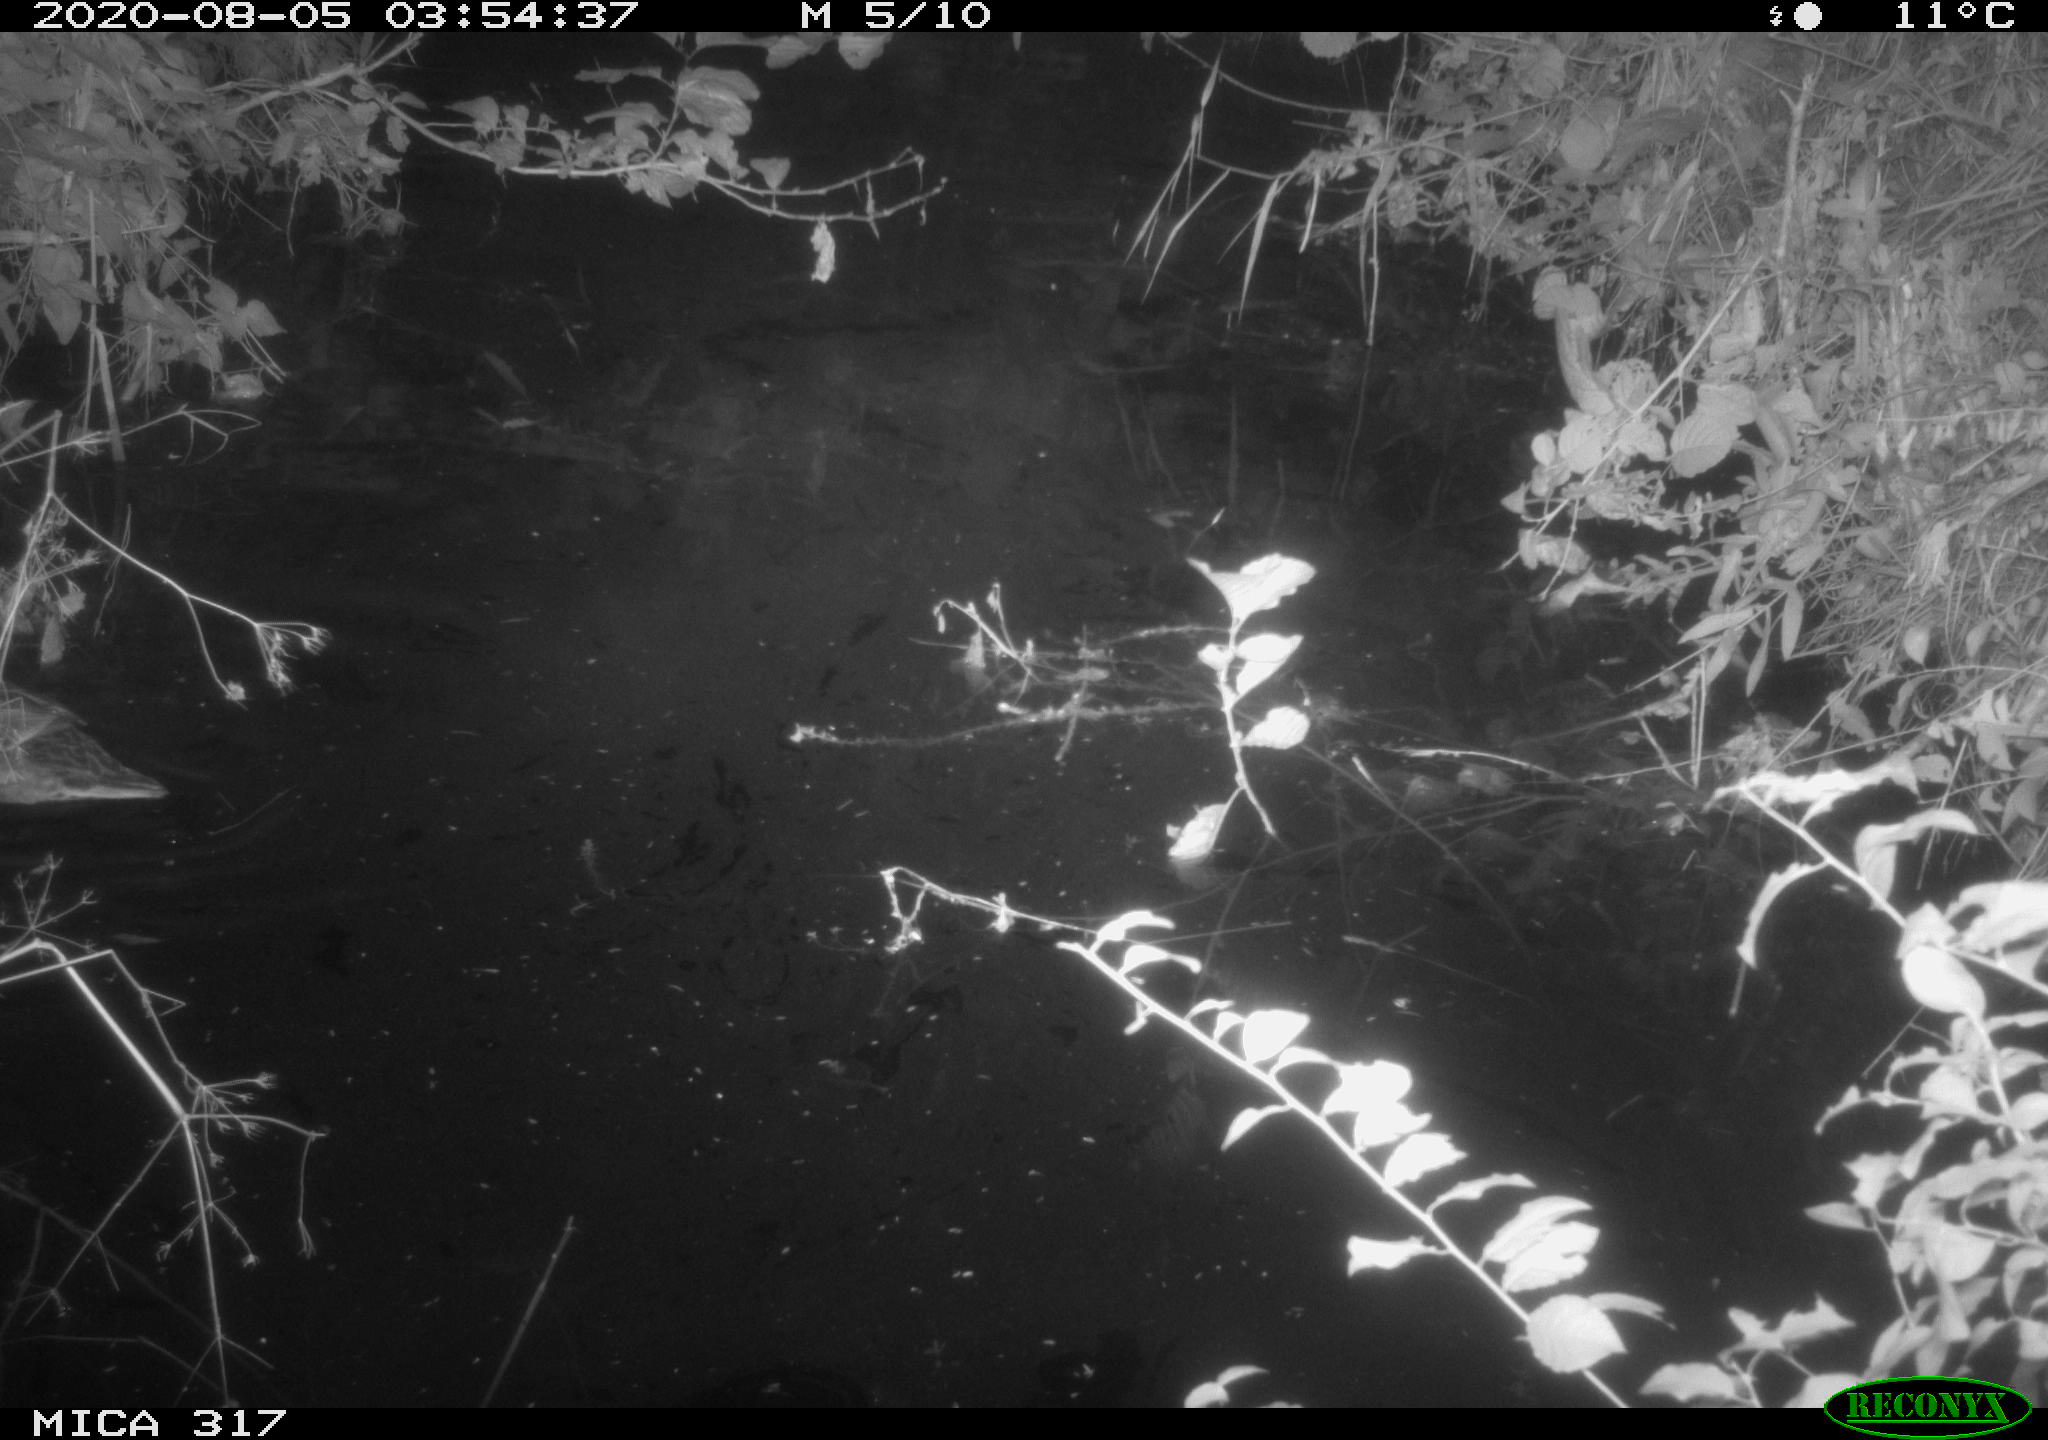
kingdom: Animalia
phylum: Chordata
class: Aves
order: Anseriformes
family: Anatidae
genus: Anas
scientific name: Anas platyrhynchos
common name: Mallard
